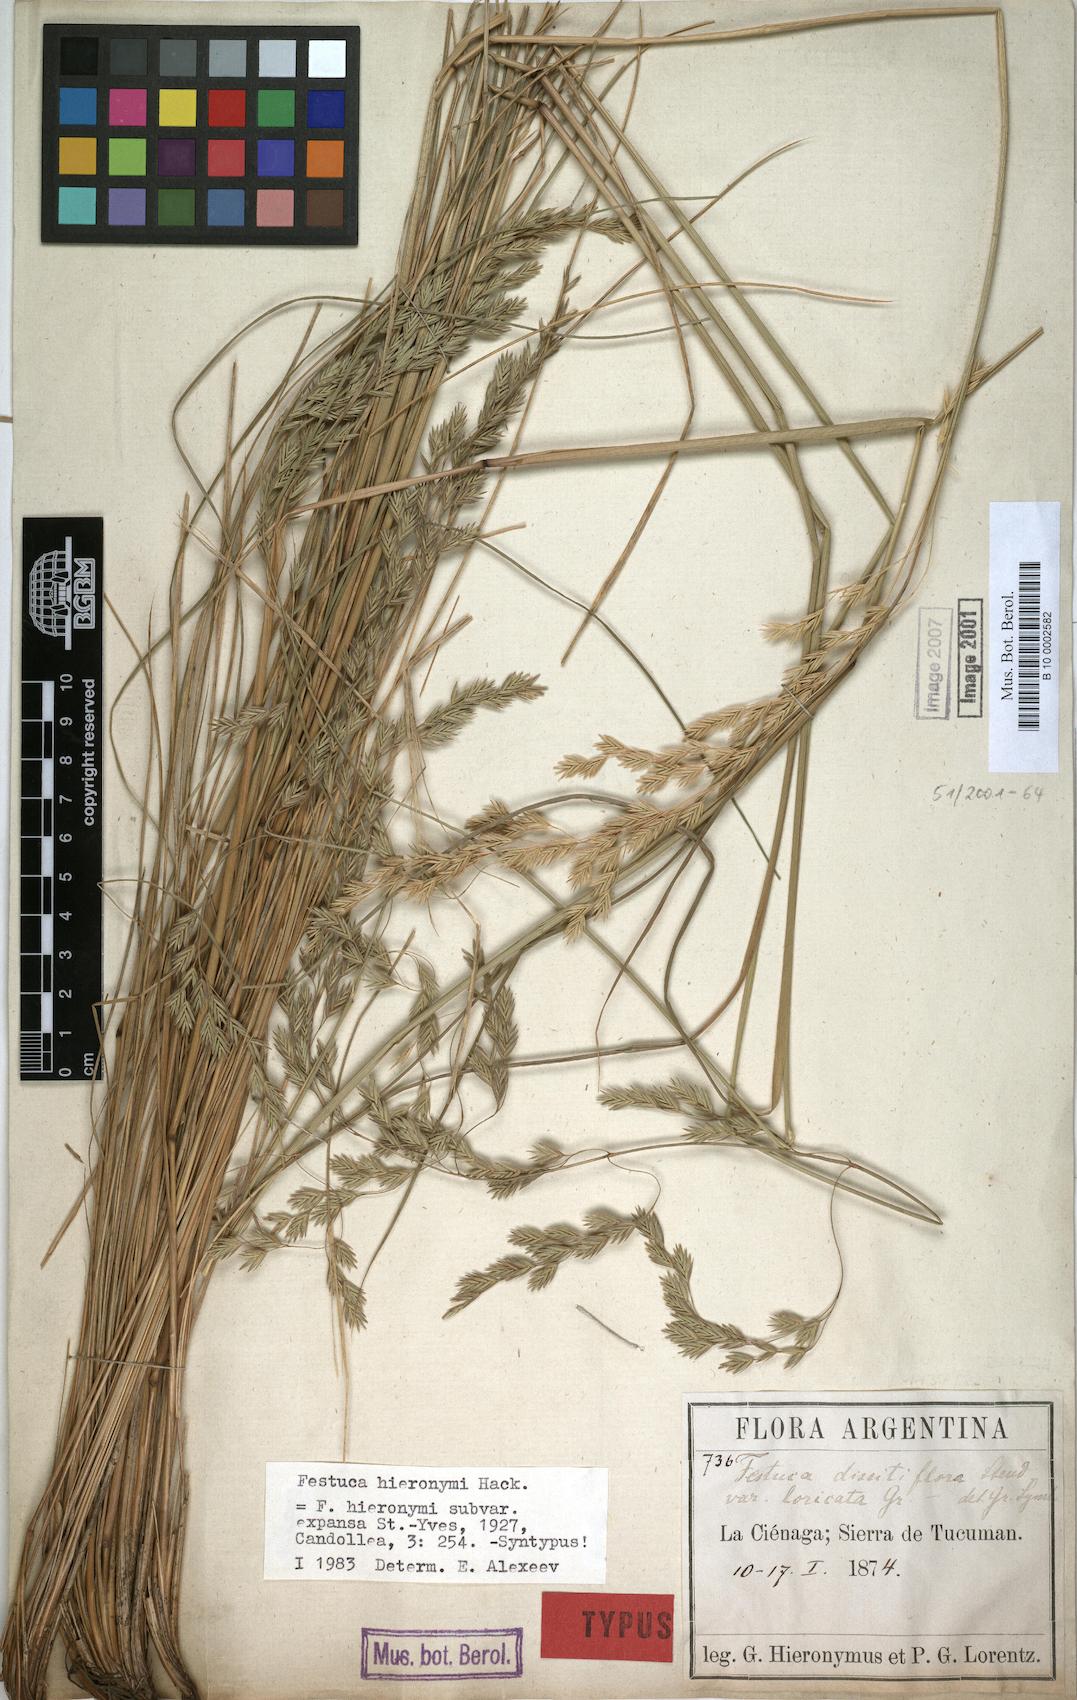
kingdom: Plantae
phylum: Tracheophyta
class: Liliopsida
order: Poales
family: Poaceae
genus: Festuca
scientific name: Festuca hieronymi
